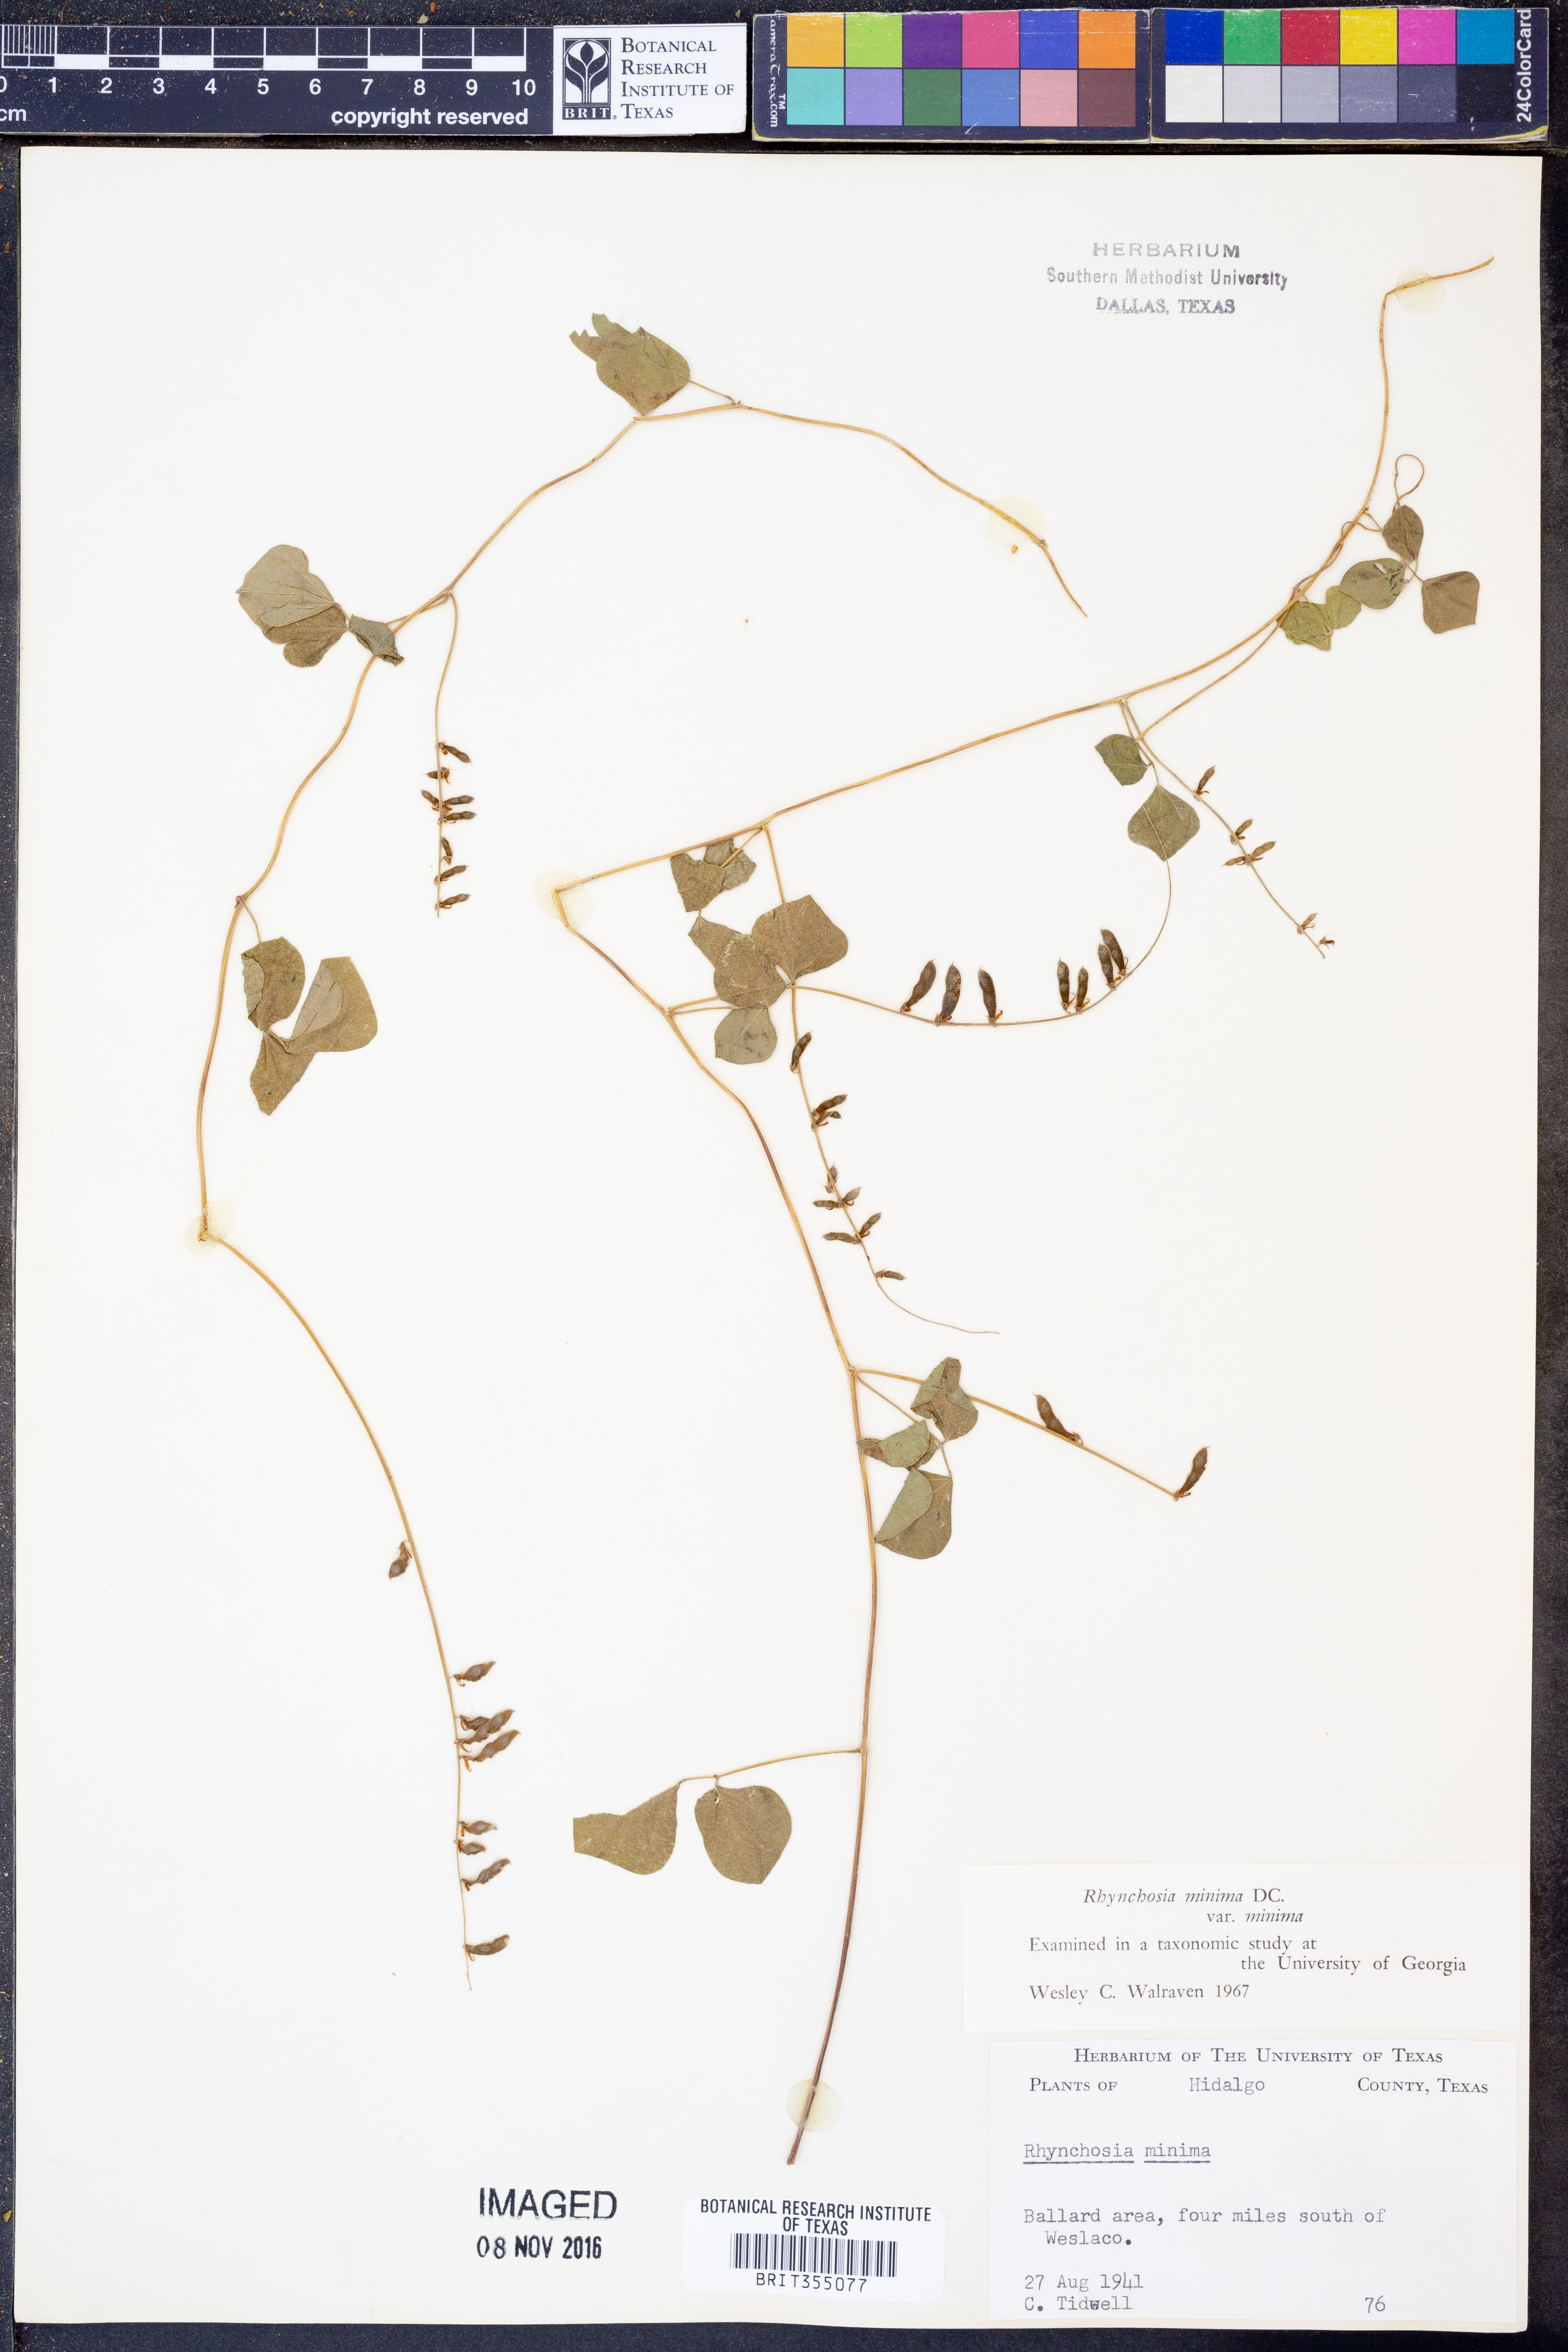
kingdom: Plantae
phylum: Tracheophyta
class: Magnoliopsida
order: Fabales
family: Fabaceae
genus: Rhynchosia
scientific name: Rhynchosia minima
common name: Least snoutbean
